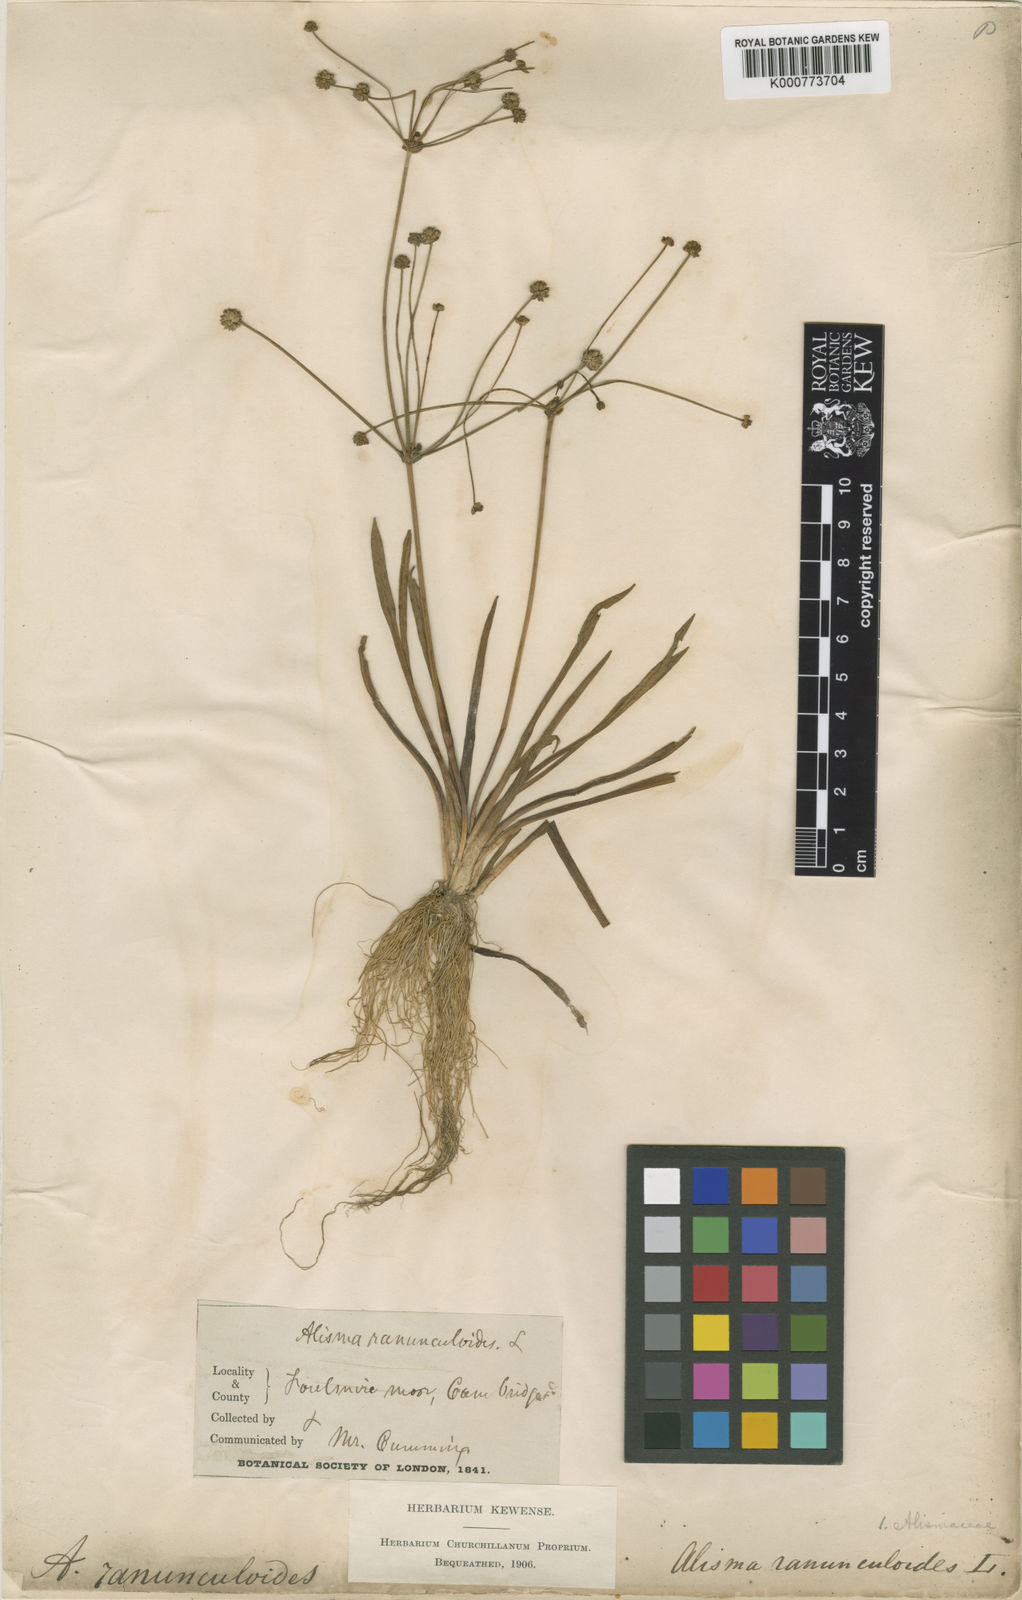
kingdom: Plantae
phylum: Tracheophyta
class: Liliopsida
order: Alismatales
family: Alismataceae
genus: Baldellia
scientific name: Baldellia ranunculoides
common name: Lesser water-plantain
